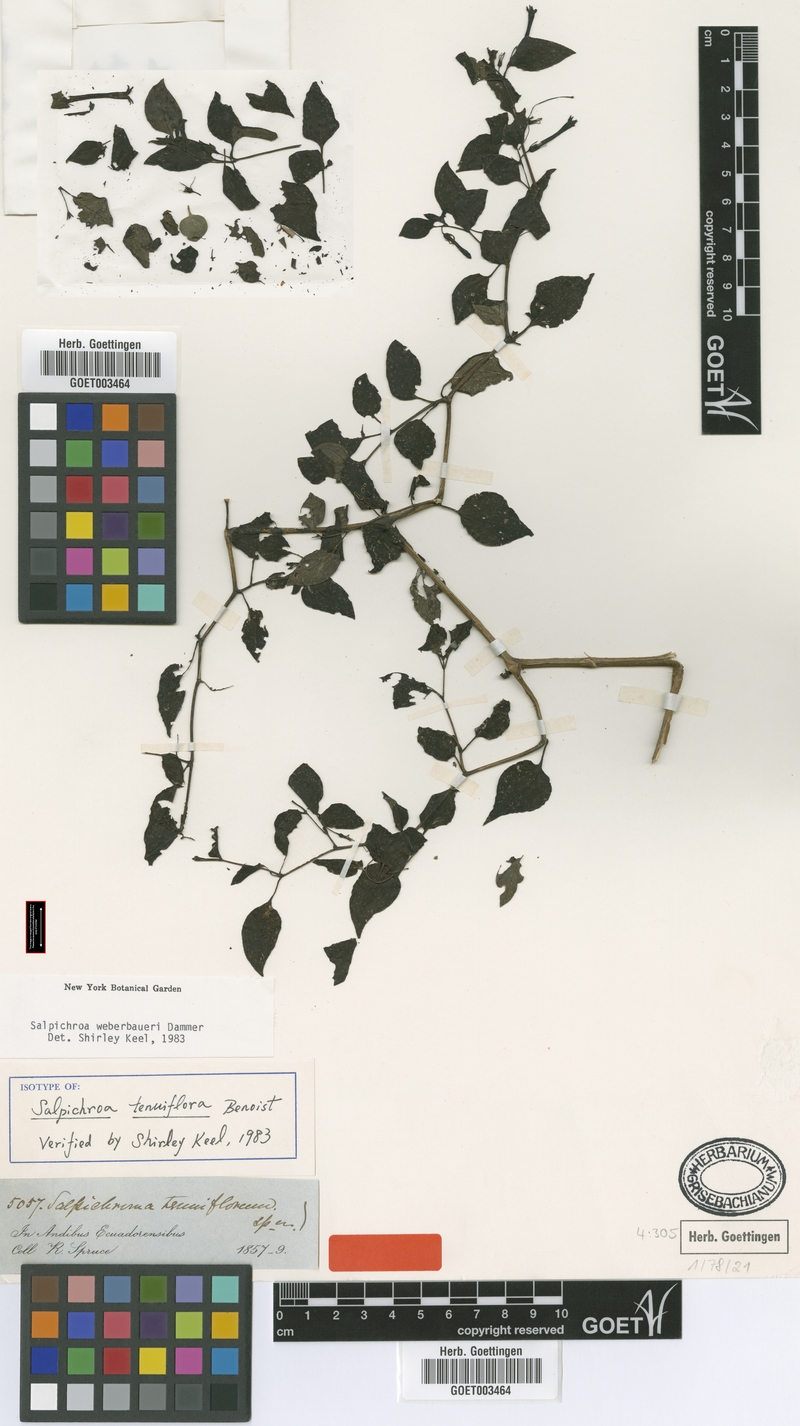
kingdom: Plantae
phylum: Tracheophyta
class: Magnoliopsida
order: Solanales
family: Solanaceae
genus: Salpichroa
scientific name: Salpichroa weberbaueri
